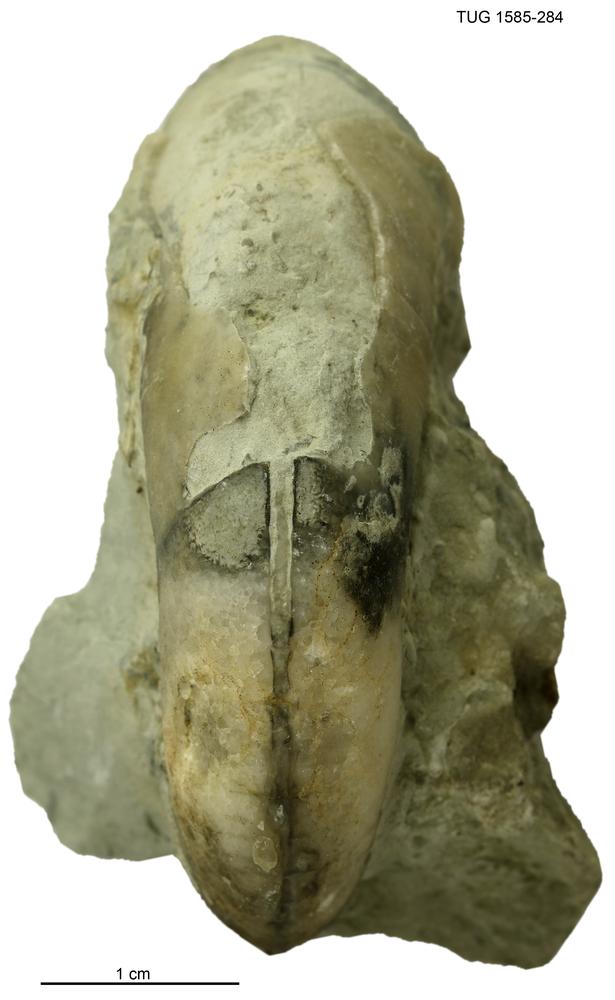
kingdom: Animalia
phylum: Mollusca
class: Gastropoda
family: Bucaniidae
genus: Salpingostoma
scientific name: Salpingostoma
